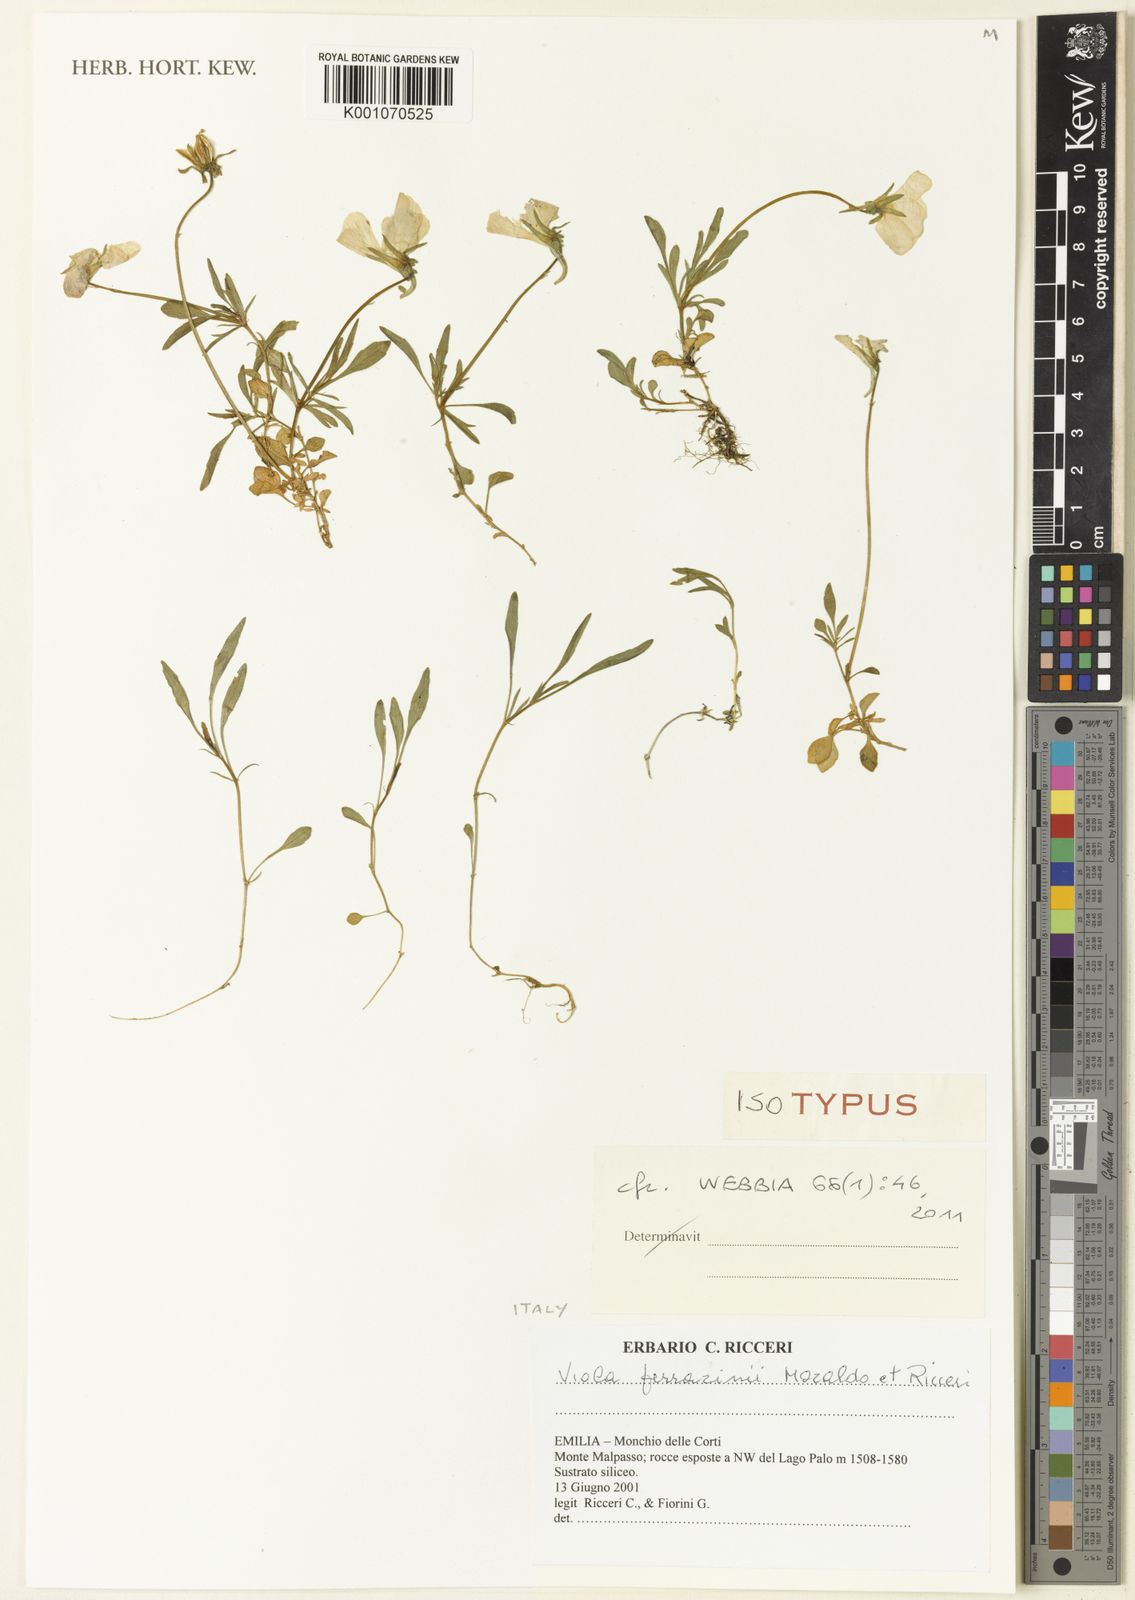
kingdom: Plantae
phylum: Tracheophyta
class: Magnoliopsida
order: Malpighiales
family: Violaceae
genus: Viola
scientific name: Viola ferrarinii
